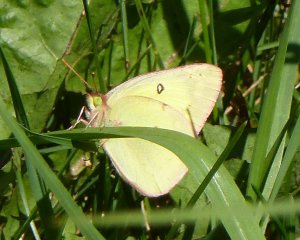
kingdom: Animalia
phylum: Arthropoda
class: Insecta
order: Lepidoptera
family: Pieridae
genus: Colias
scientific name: Colias philodice
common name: Clouded Sulphur
